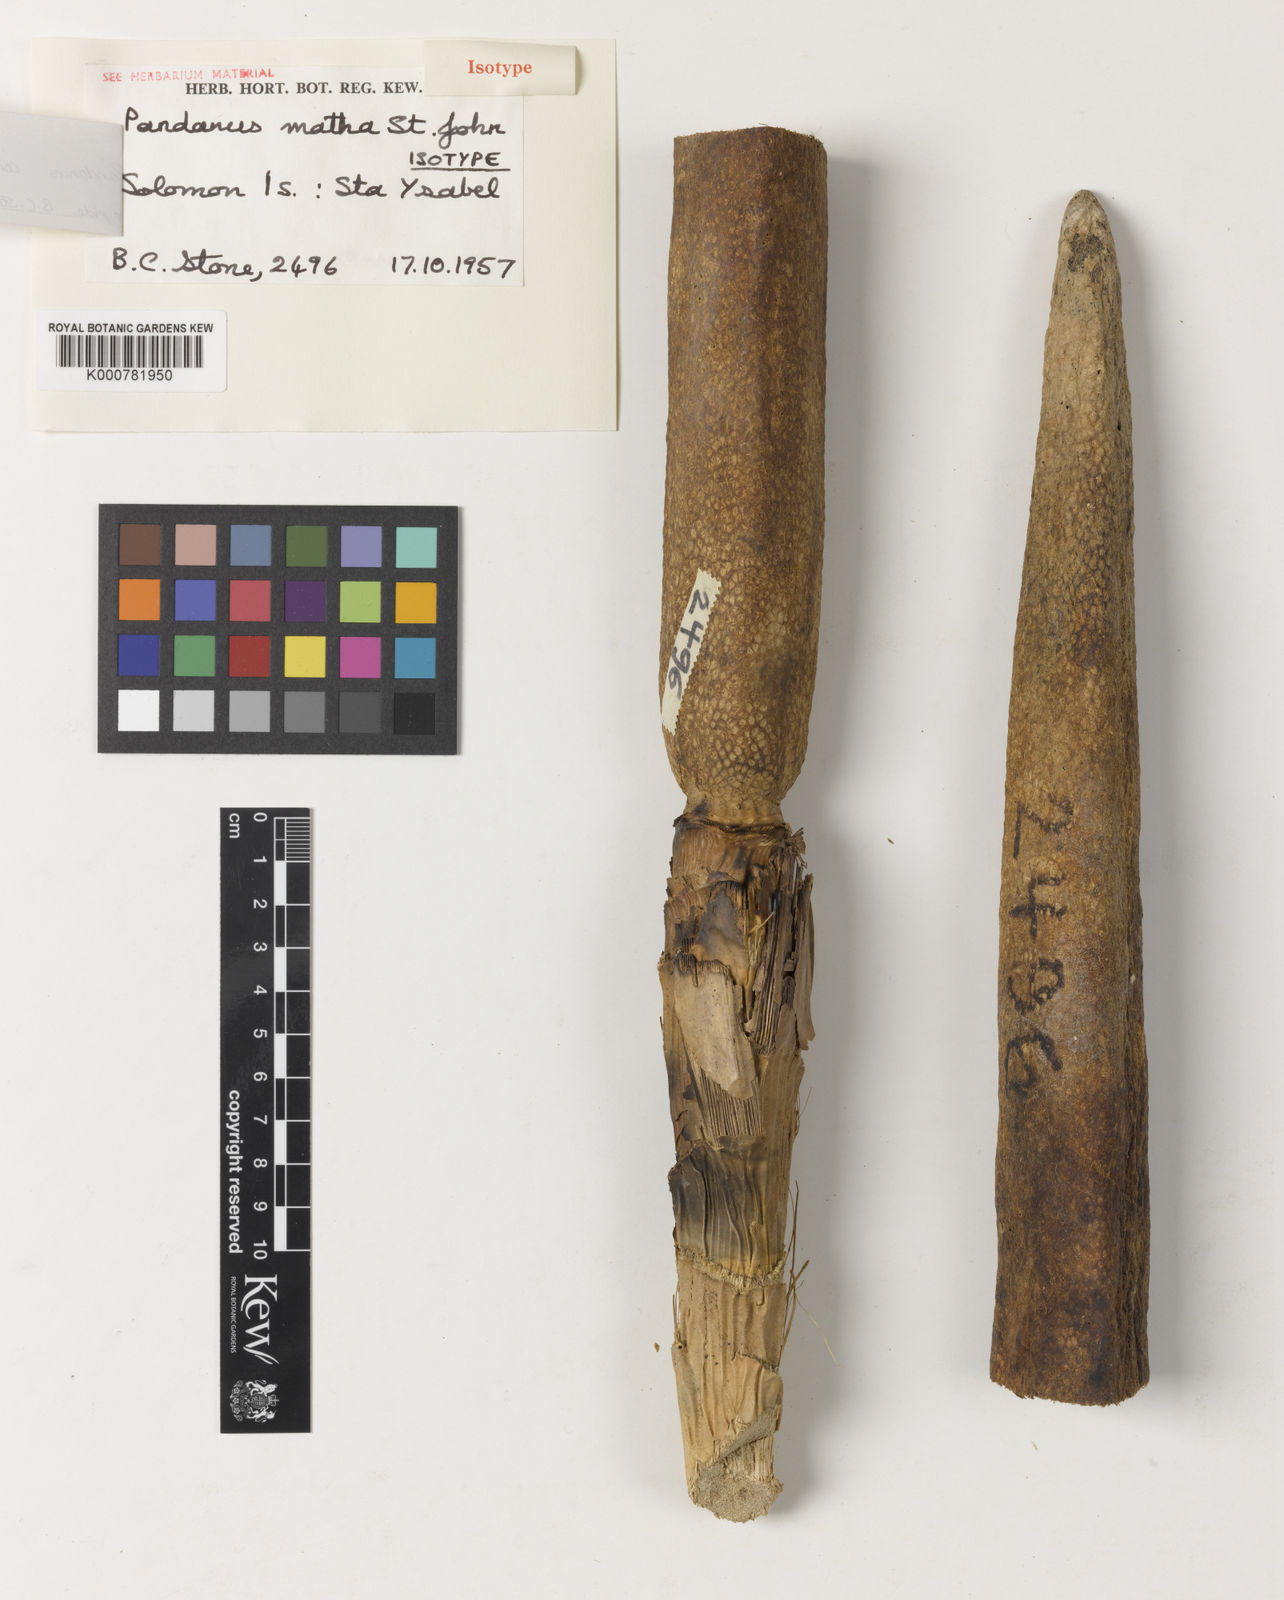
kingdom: Plantae
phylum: Tracheophyta
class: Liliopsida
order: Pandanales
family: Pandanaceae
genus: Pandanus
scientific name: Pandanus conoideus
